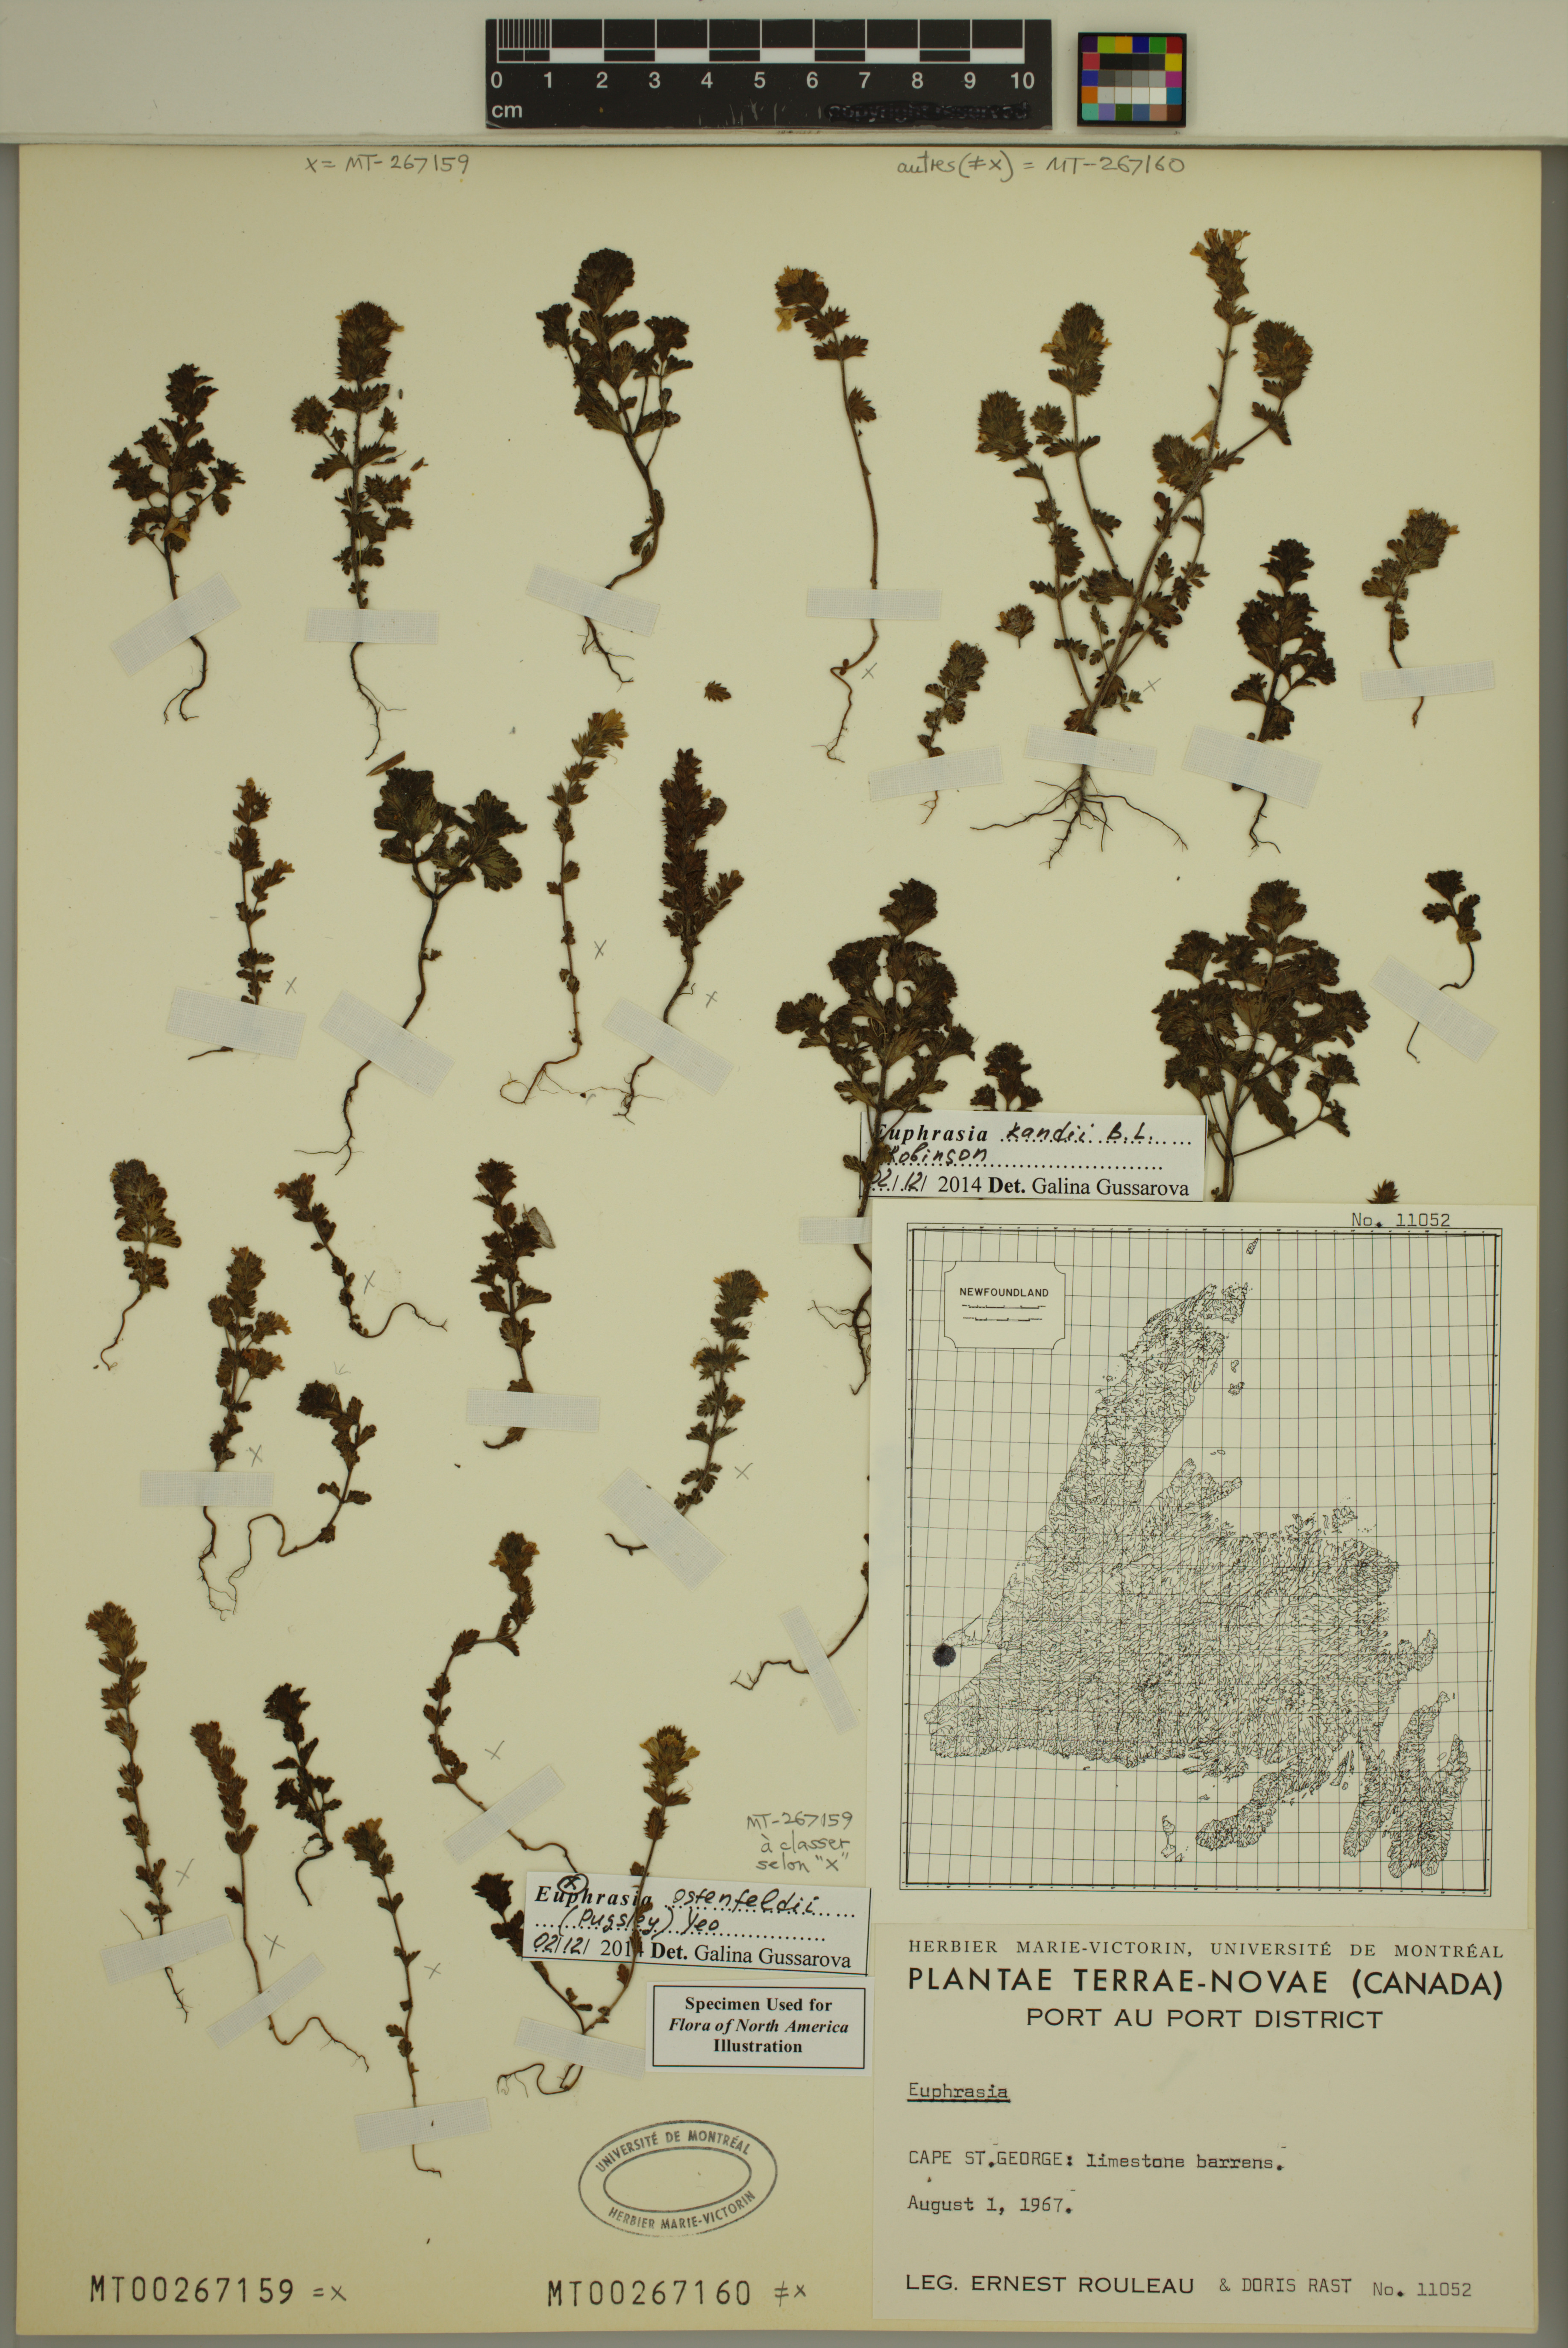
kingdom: Plantae
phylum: Tracheophyta
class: Magnoliopsida
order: Lamiales
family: Orobanchaceae
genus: Euphrasia
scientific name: Euphrasia ostenfeldii
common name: An eyebright
